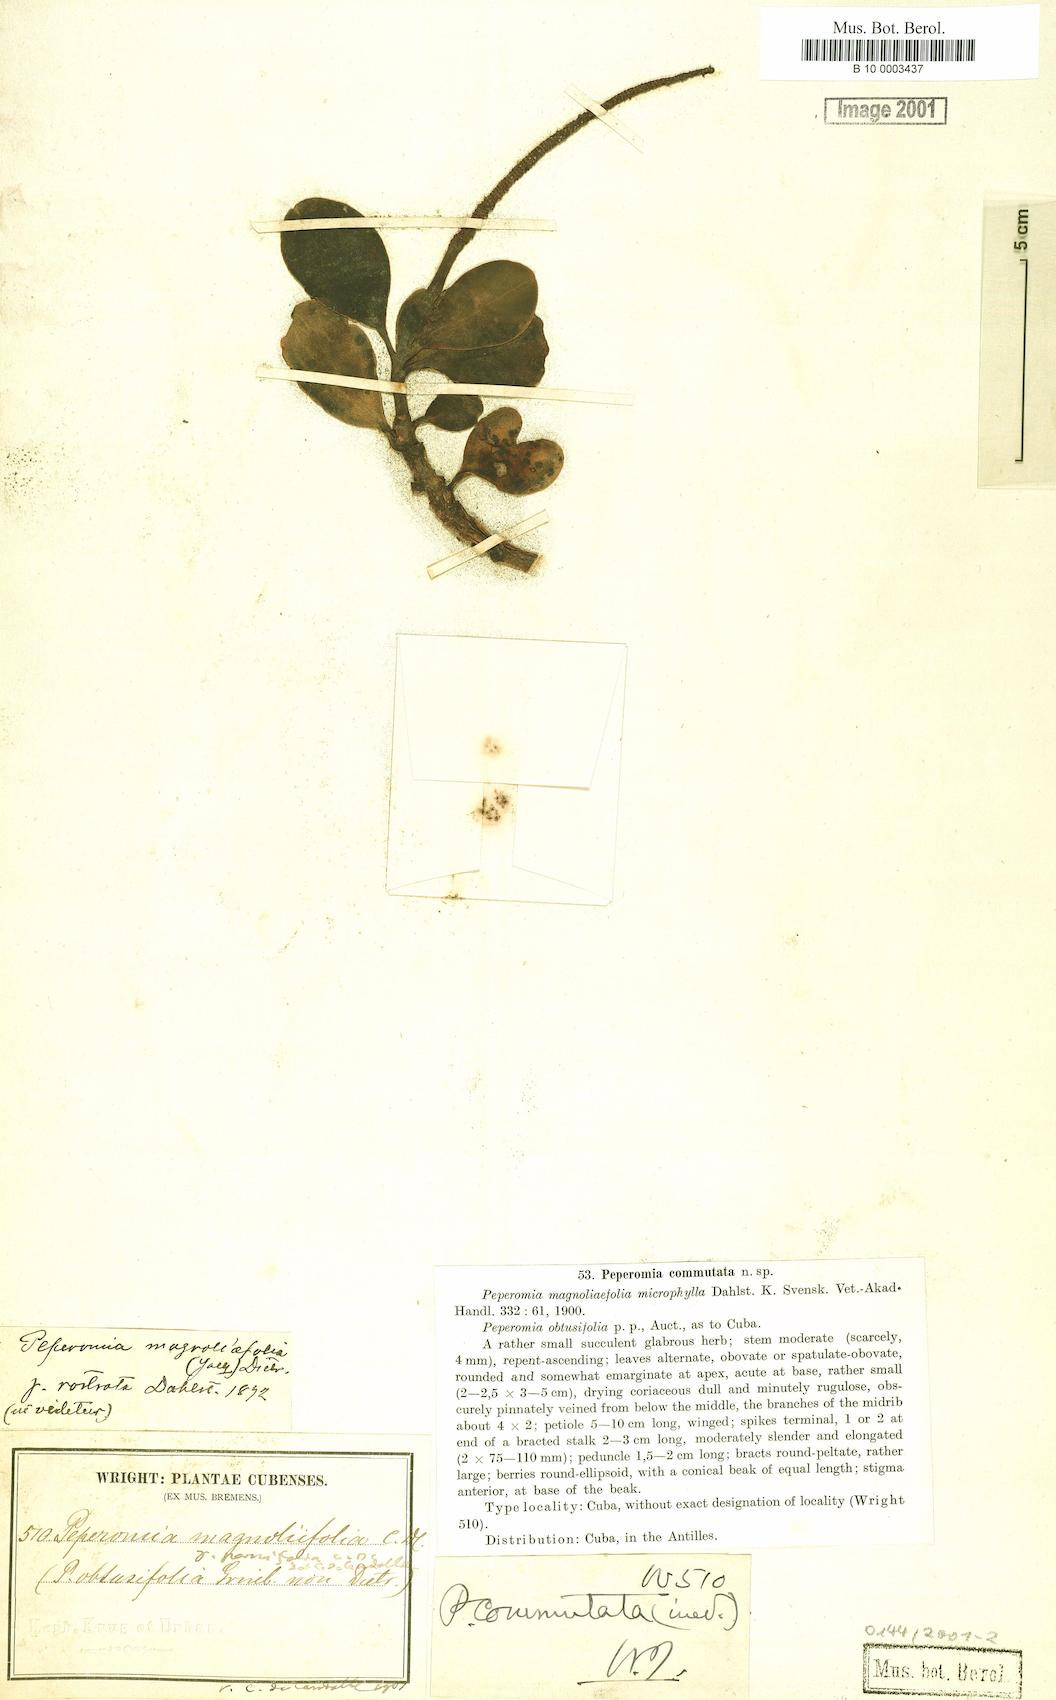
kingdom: Plantae
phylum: Tracheophyta
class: Magnoliopsida
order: Piperales
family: Piperaceae
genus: Peperomia
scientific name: Peperomia magnoliifolia
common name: Spoonleaf peperomia
